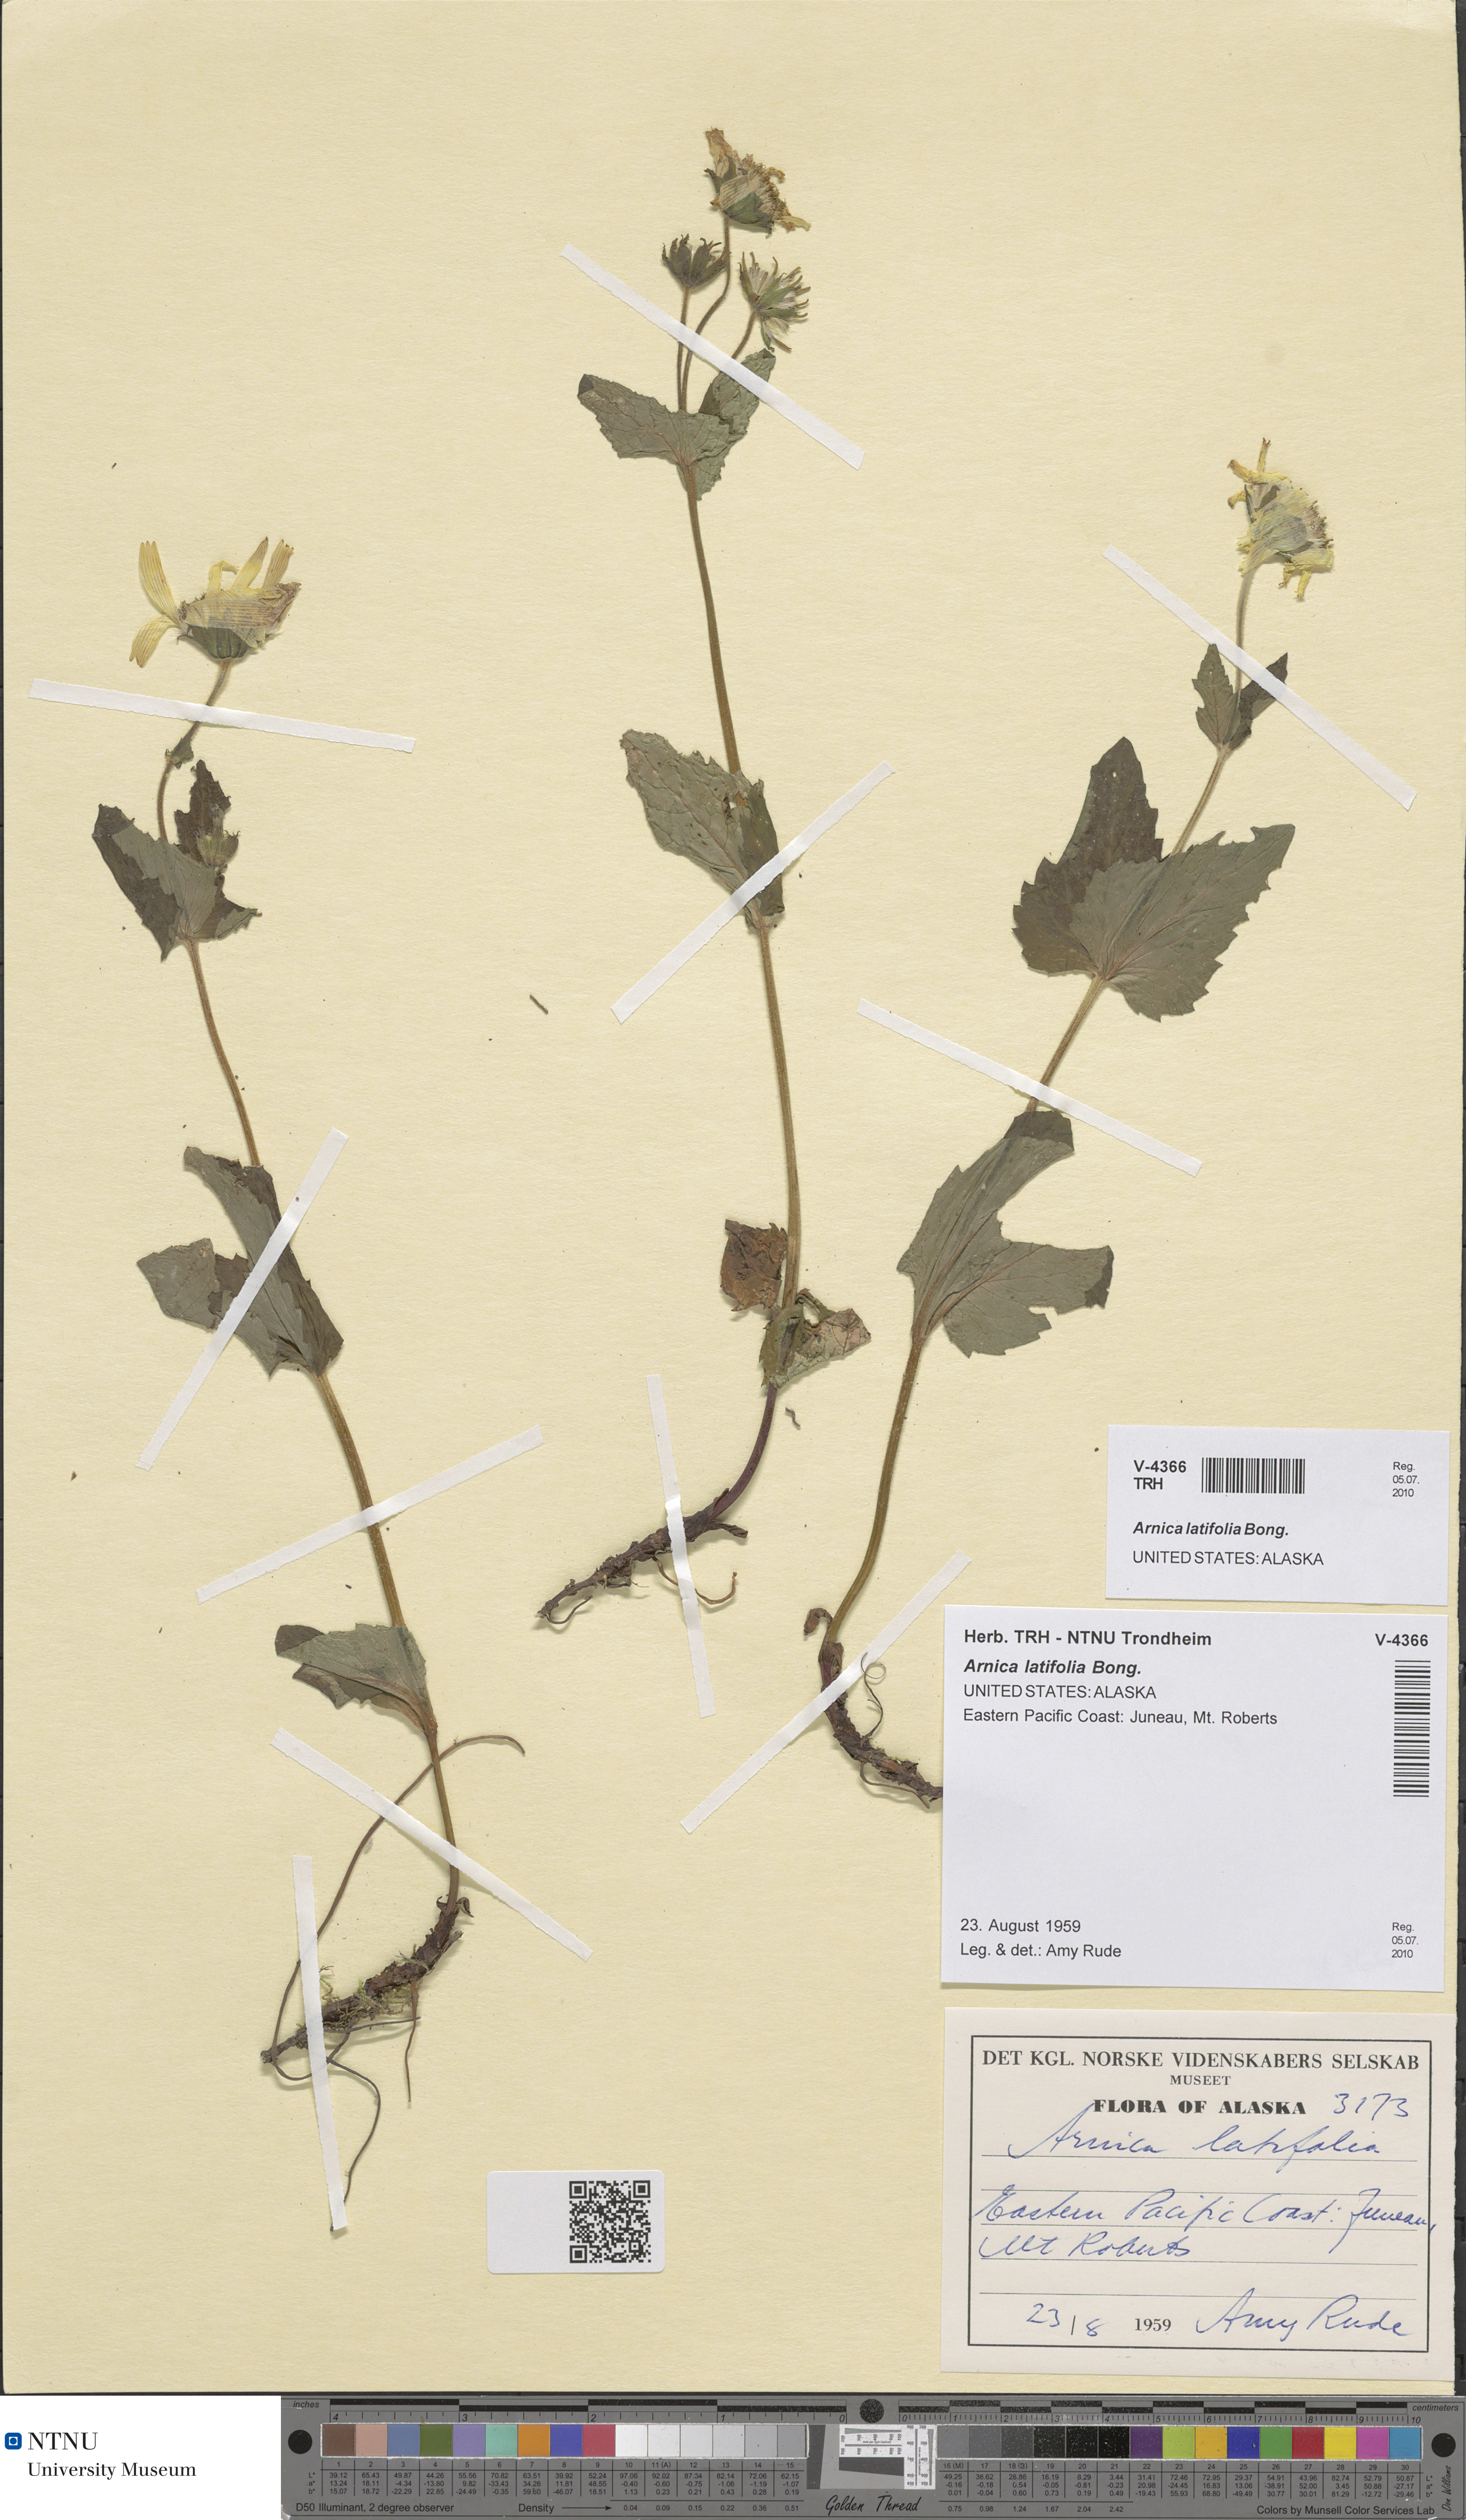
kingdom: Plantae
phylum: Tracheophyta
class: Magnoliopsida
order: Asterales
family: Asteraceae
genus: Arnica
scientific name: Arnica latifolia
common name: Arnica
